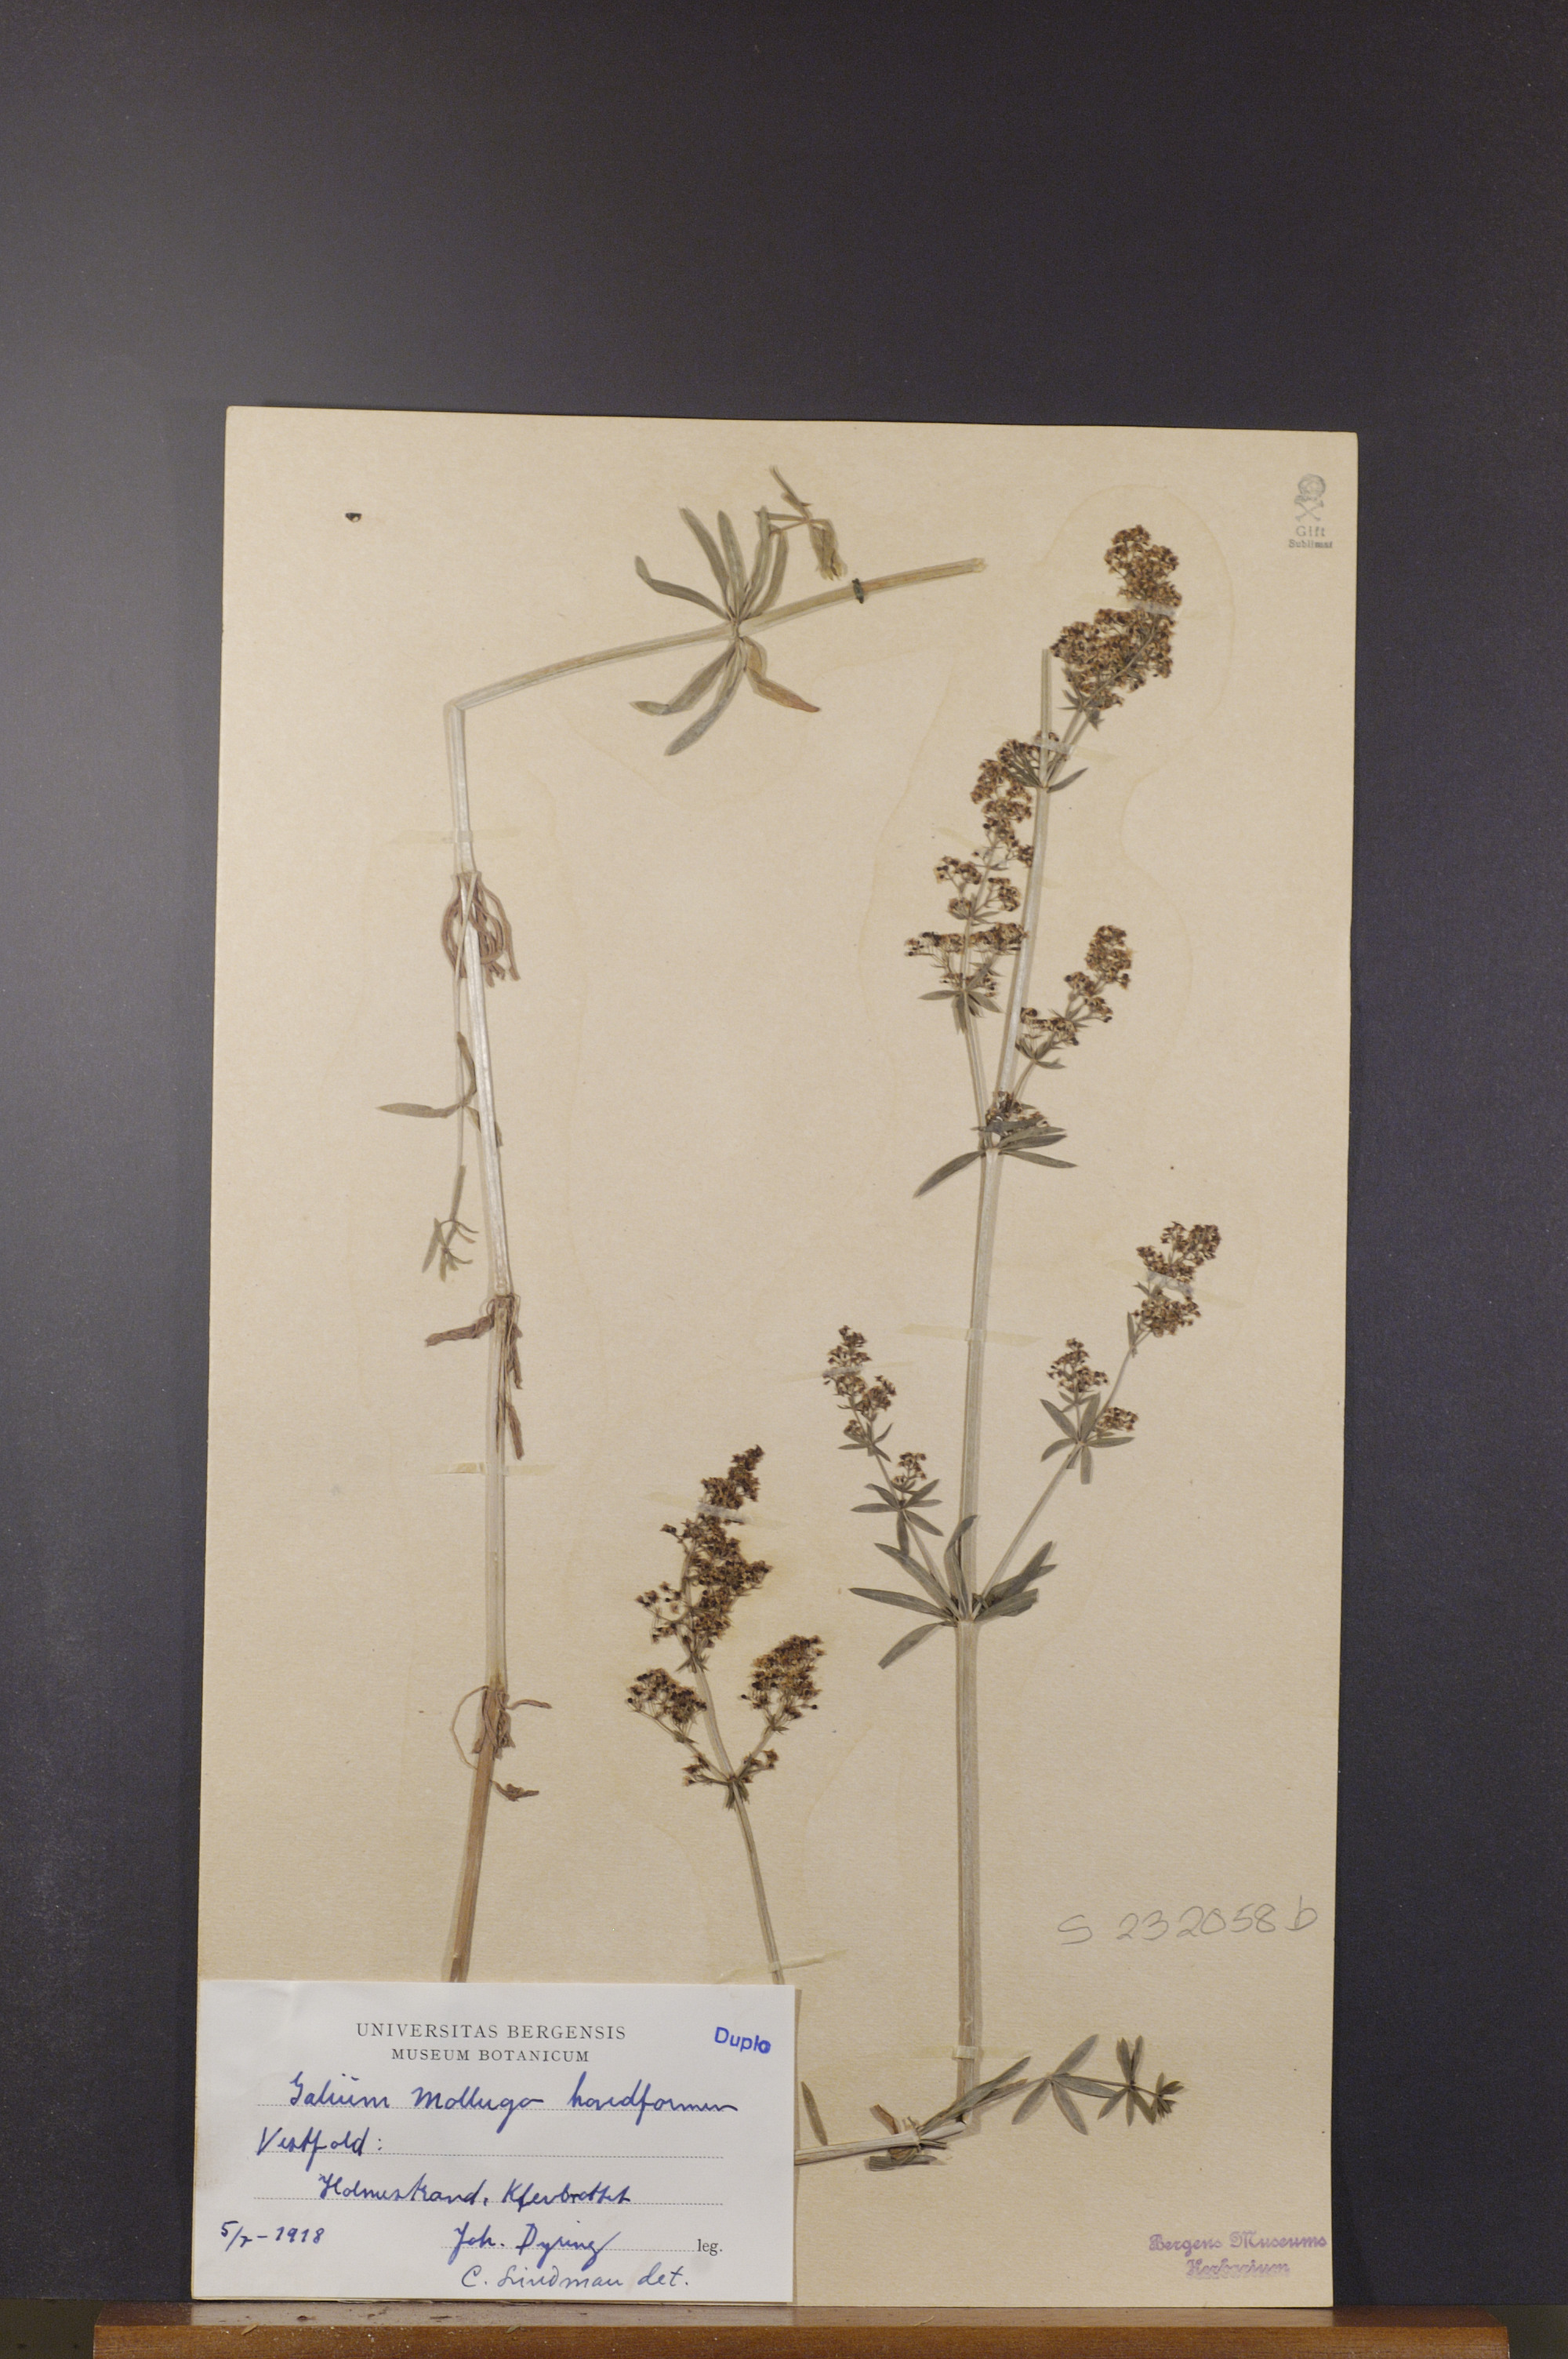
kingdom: Plantae
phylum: Tracheophyta
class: Magnoliopsida
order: Gentianales
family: Rubiaceae
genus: Galium
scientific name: Galium mollugo
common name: Hedge bedstraw
